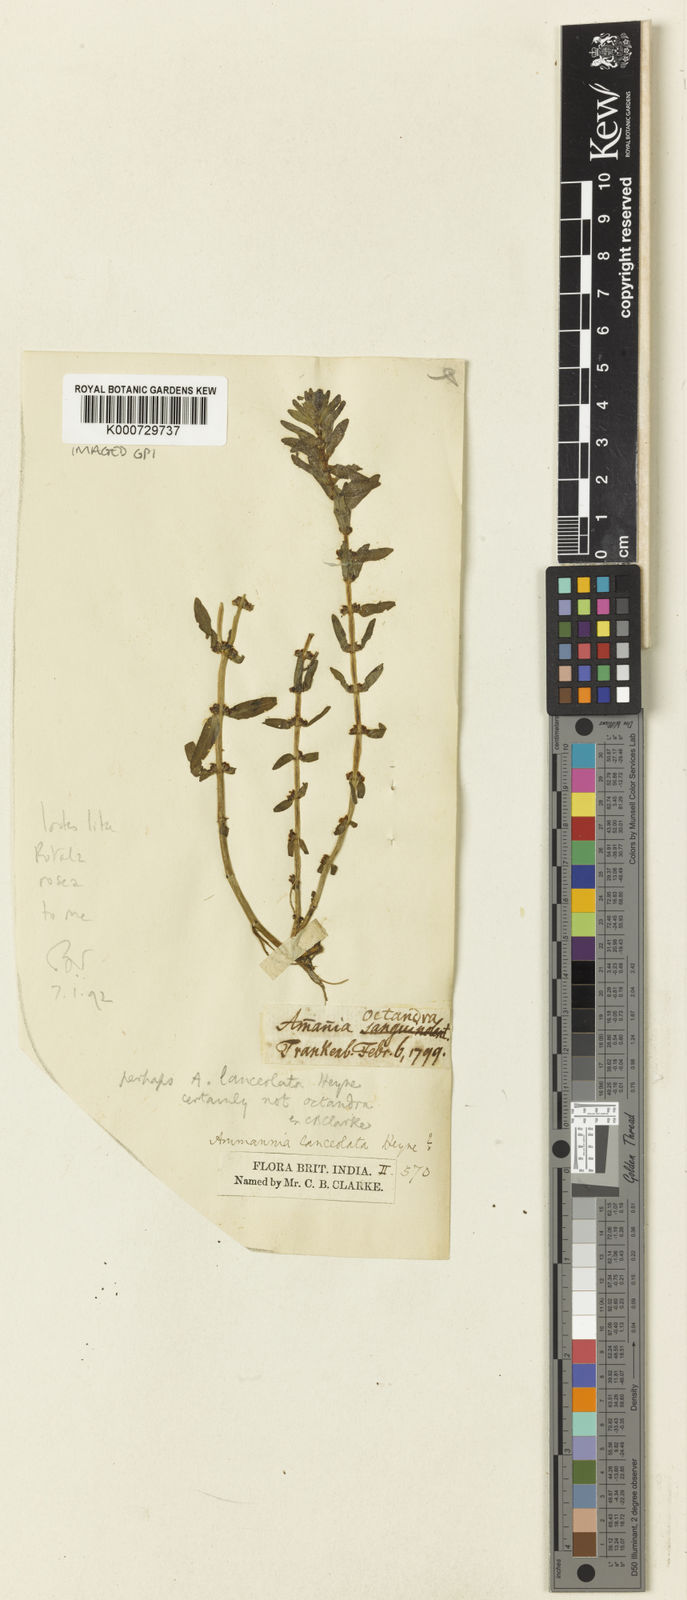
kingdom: Plantae
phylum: Tracheophyta
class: Magnoliopsida
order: Myrtales
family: Lythraceae
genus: Ammannia
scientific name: Ammannia prostrata
